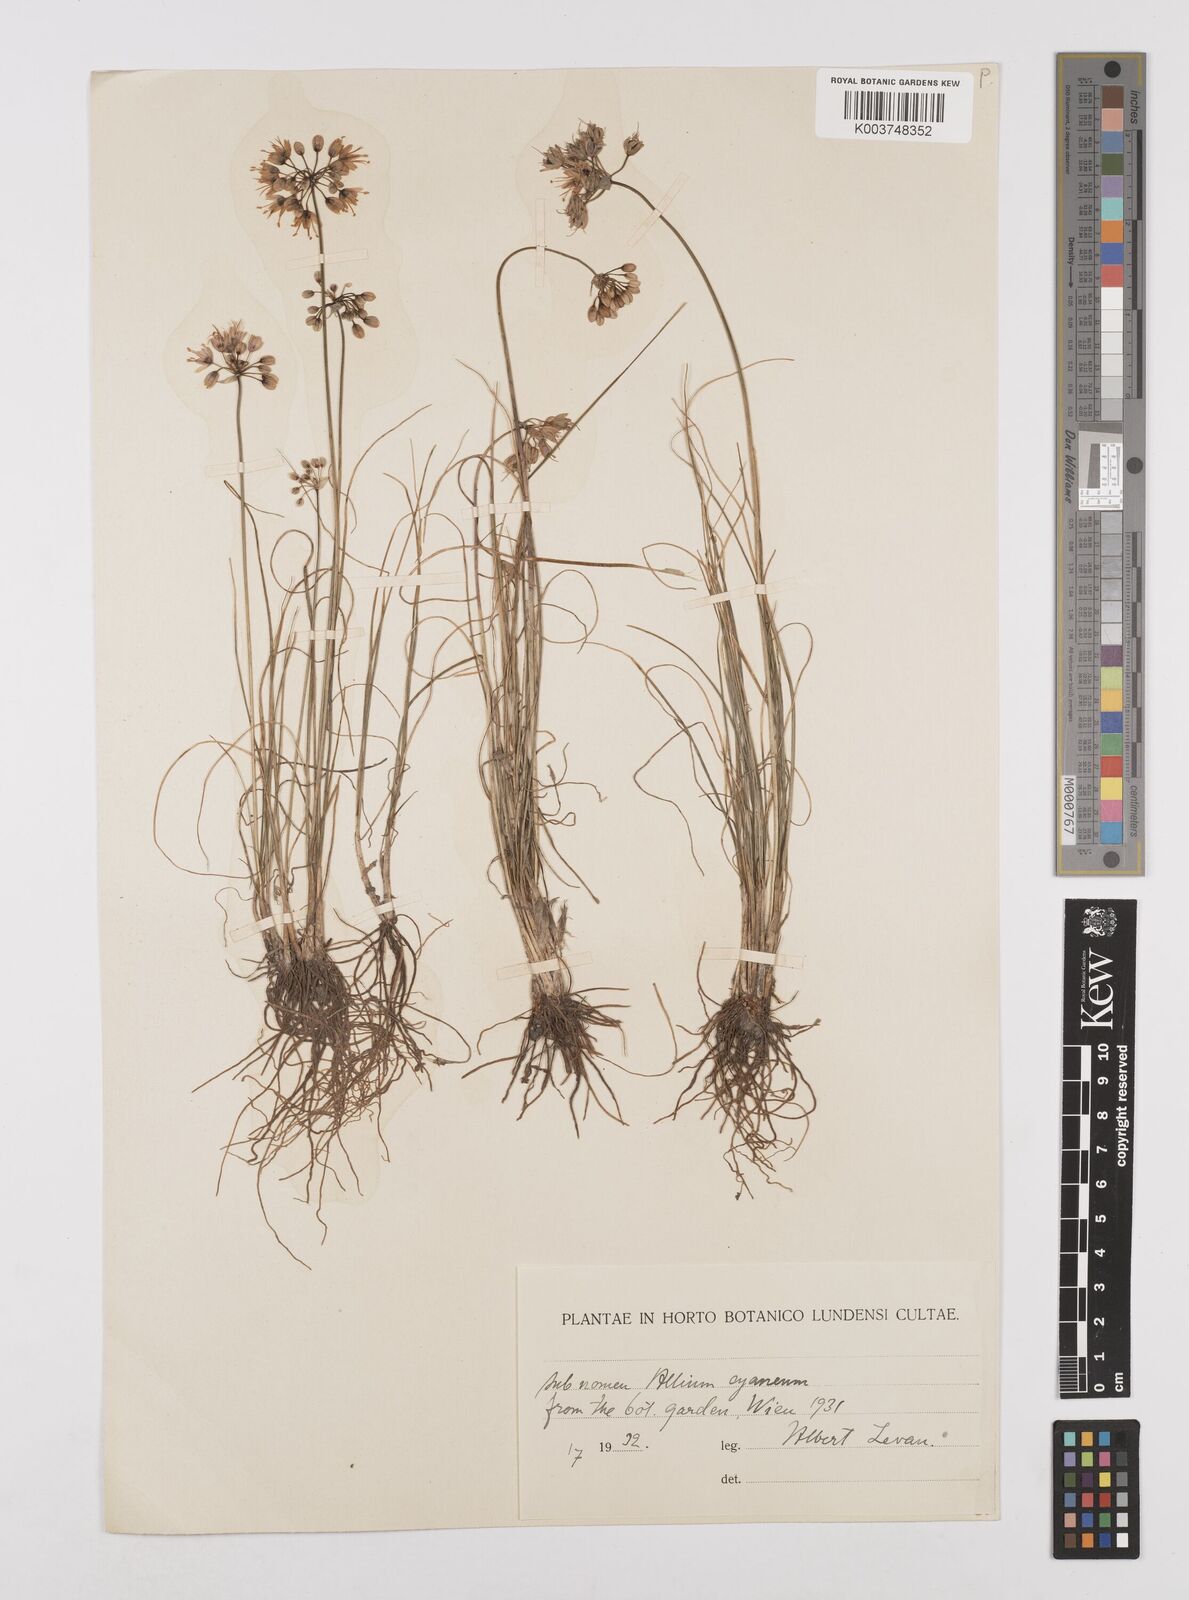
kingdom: Plantae
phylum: Tracheophyta
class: Liliopsida
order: Asparagales
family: Amaryllidaceae
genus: Allium
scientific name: Allium cyaneum
